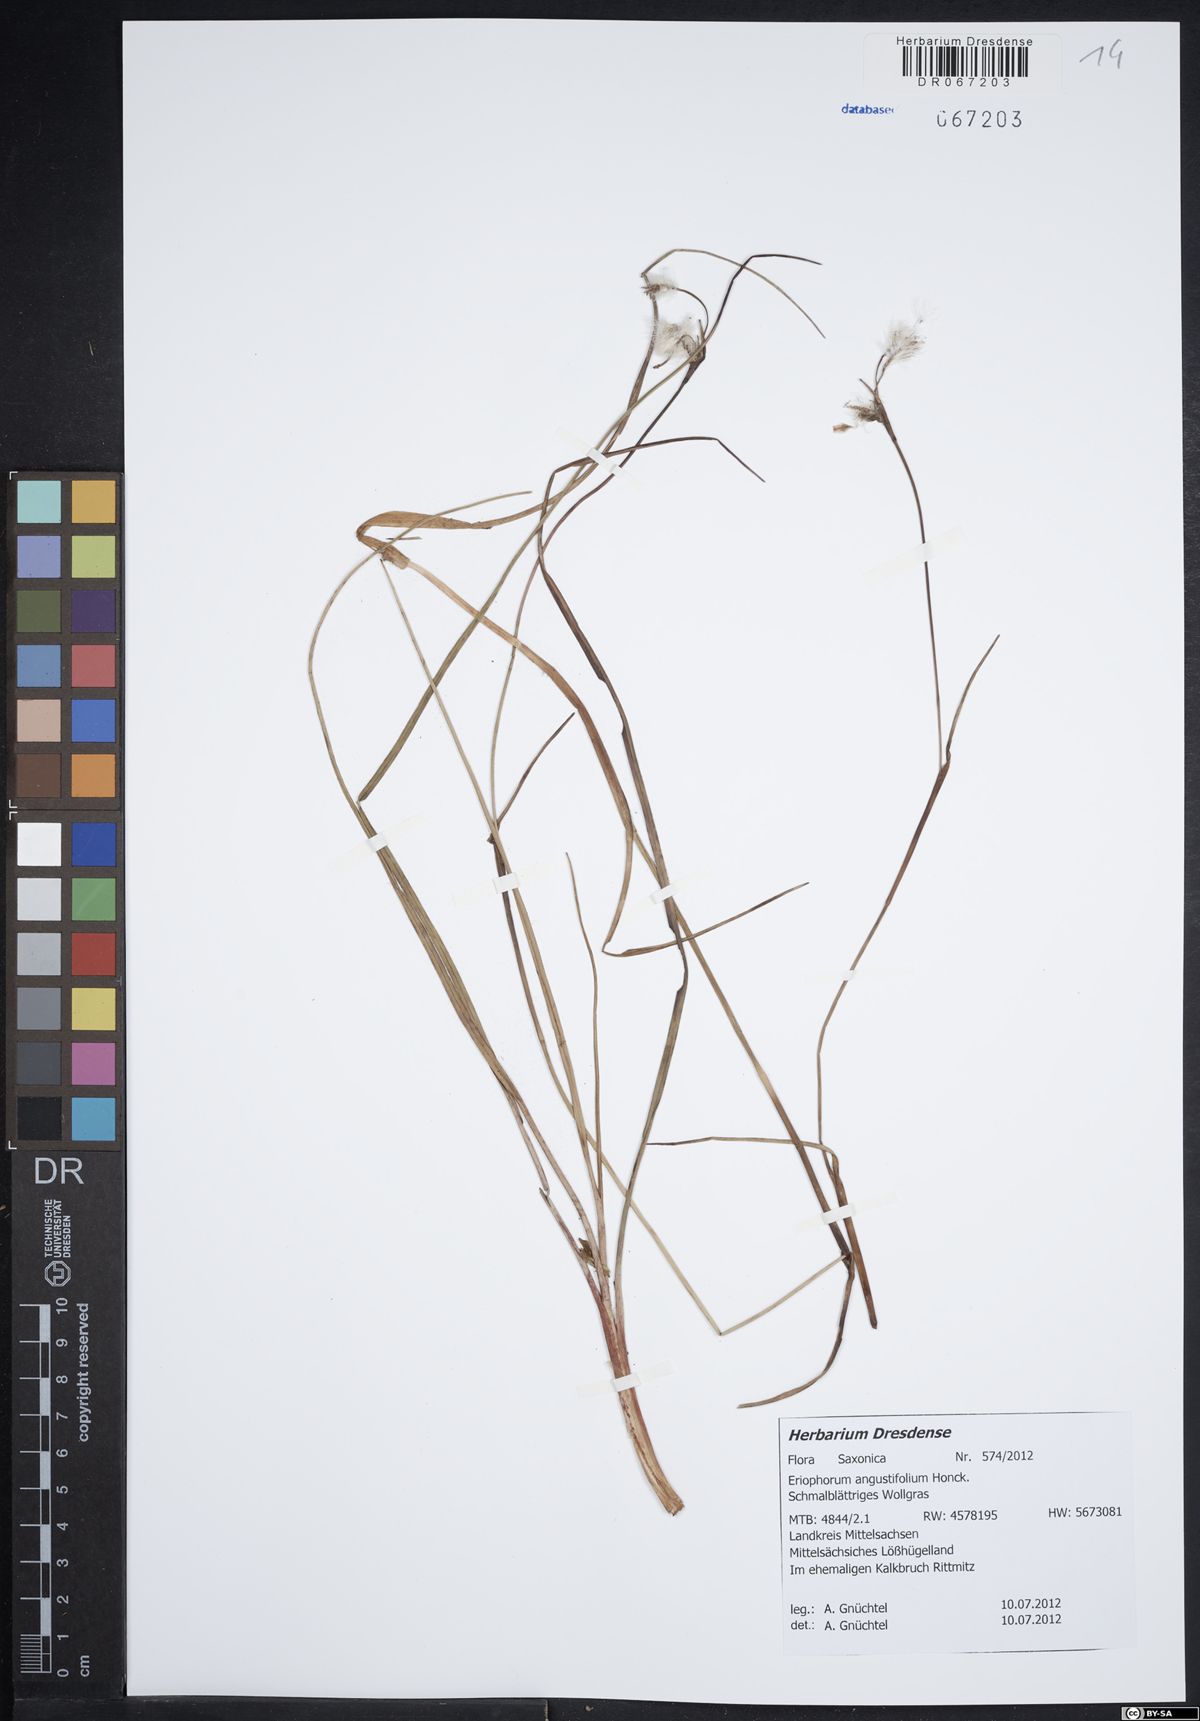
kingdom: Plantae
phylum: Tracheophyta
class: Liliopsida
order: Poales
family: Cyperaceae
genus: Eriophorum
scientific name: Eriophorum angustifolium
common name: Common cottongrass
